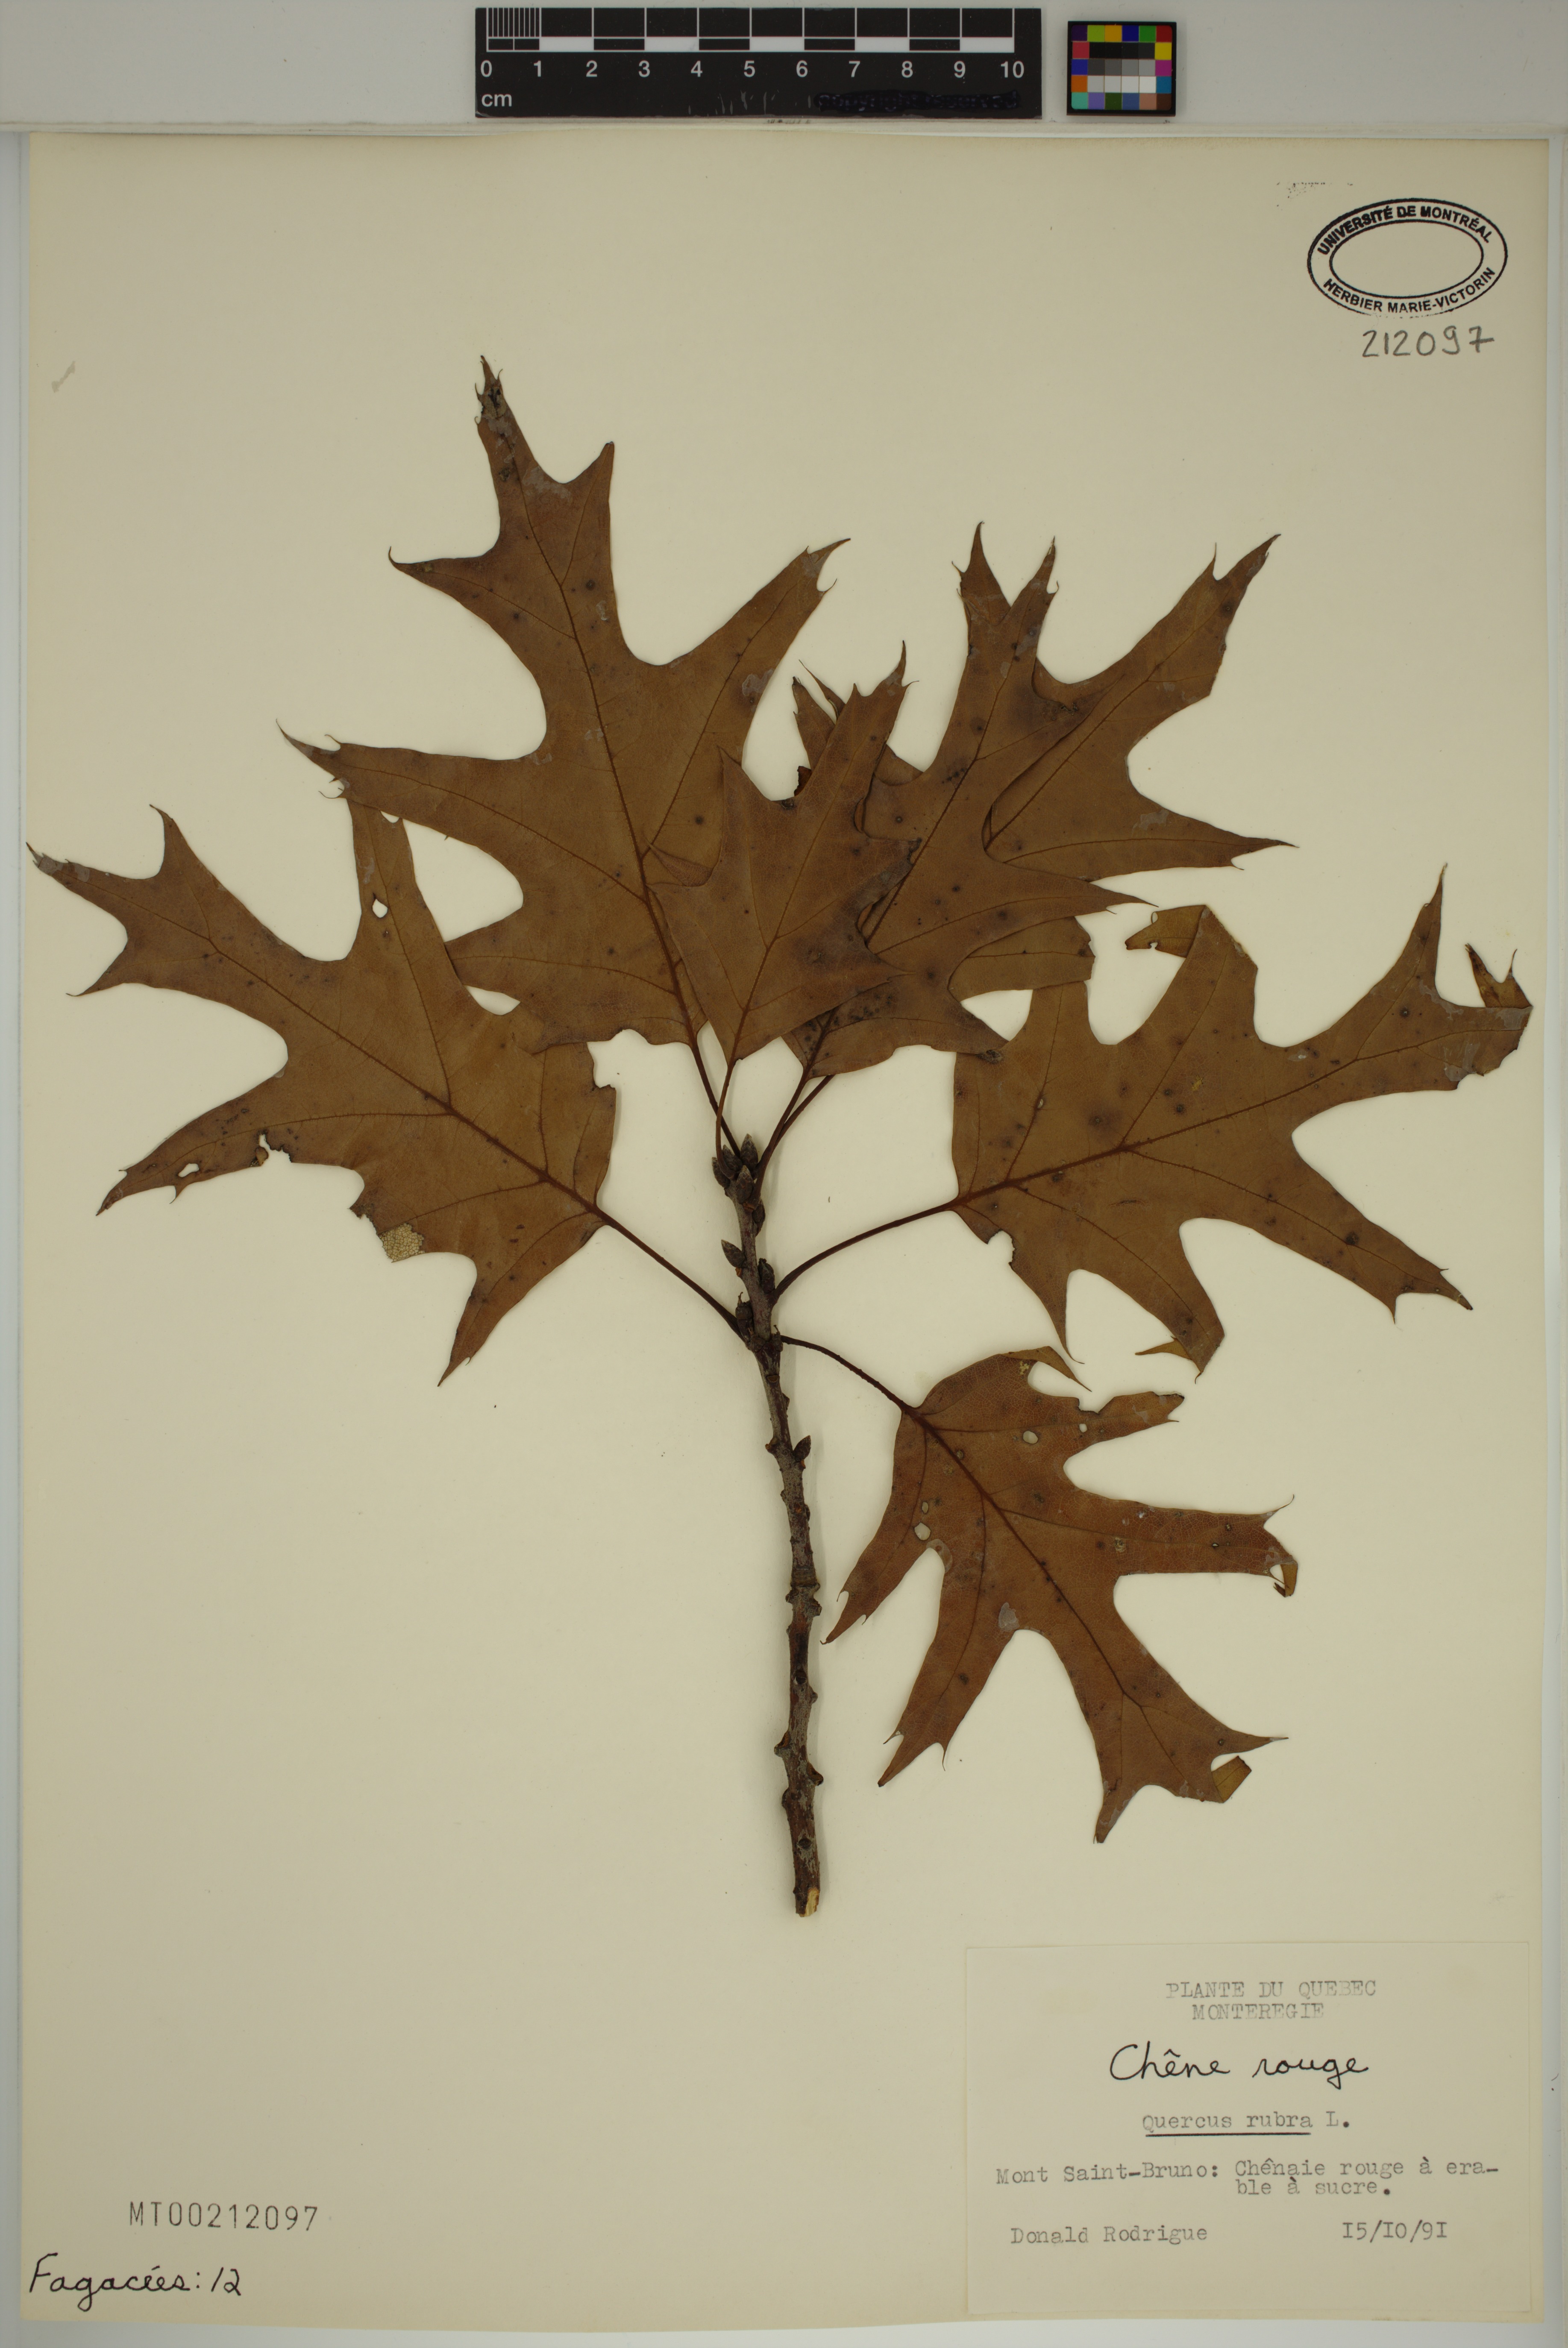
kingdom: Plantae
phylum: Tracheophyta
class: Magnoliopsida
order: Fagales
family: Fagaceae
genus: Quercus
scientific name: Quercus rubra
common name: Red oak
